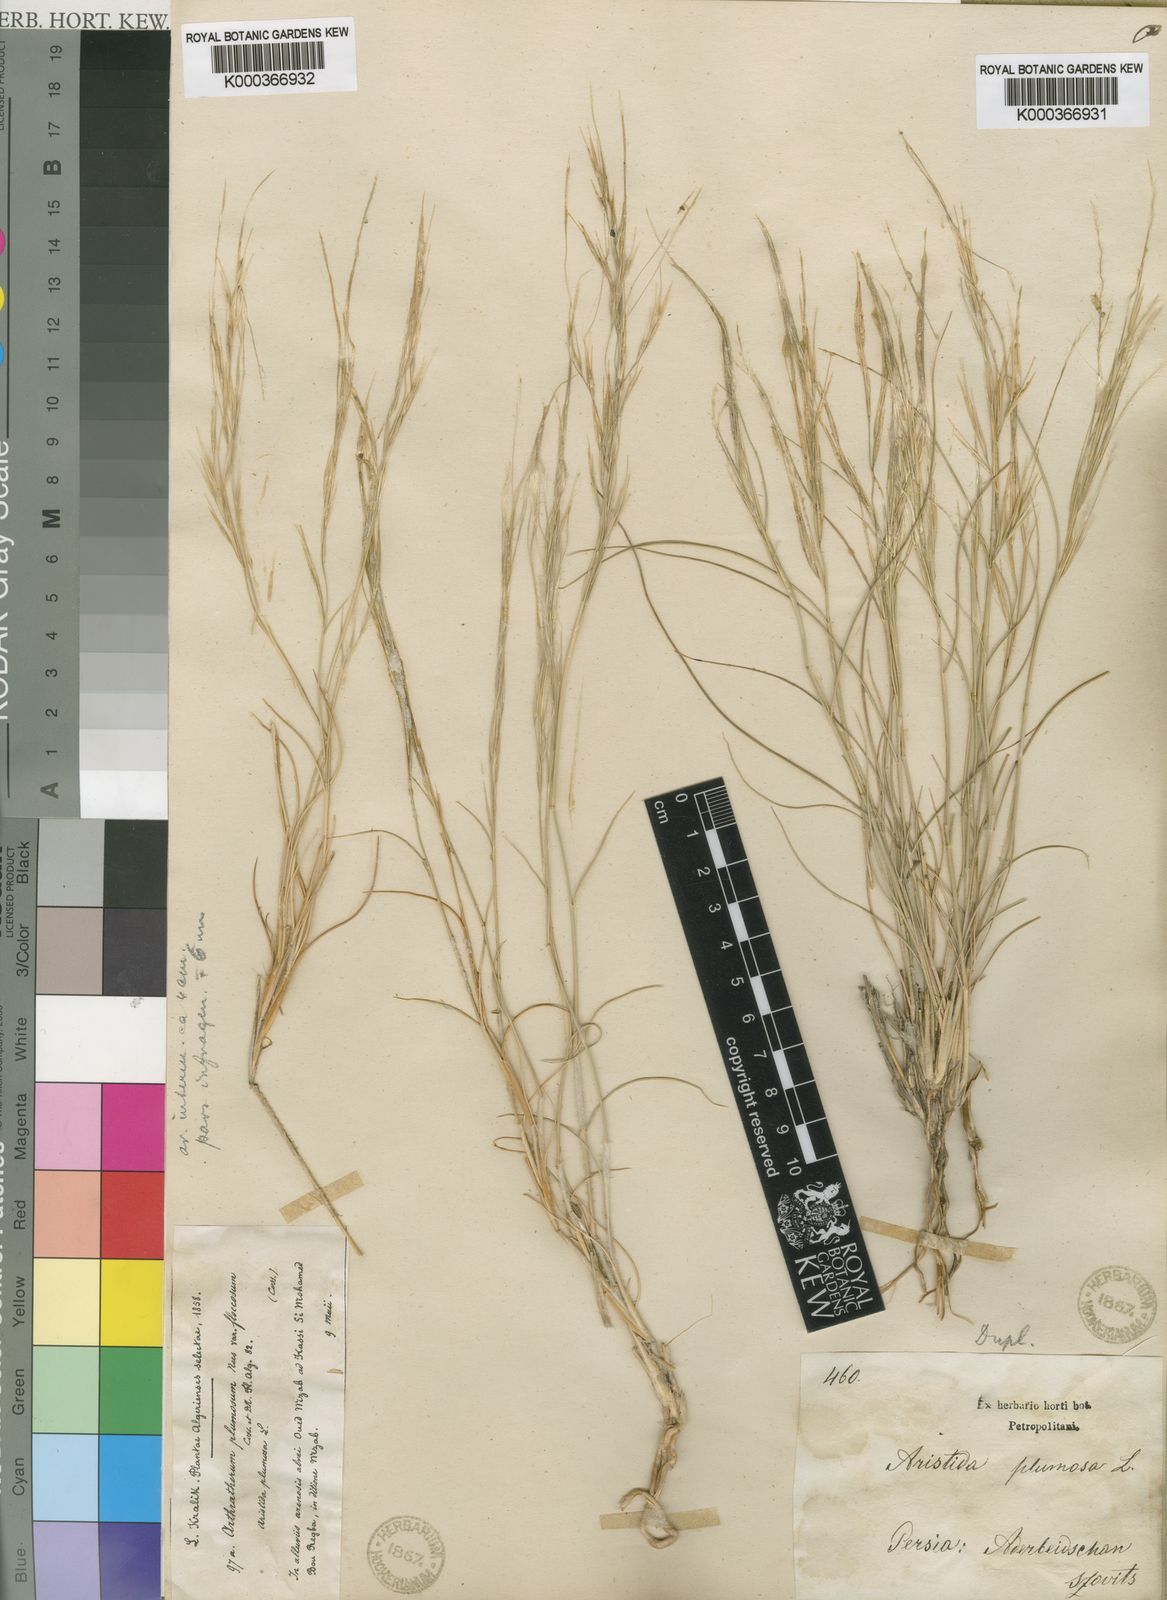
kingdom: Plantae
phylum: Tracheophyta
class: Liliopsida
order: Poales
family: Poaceae
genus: Stipagrostis
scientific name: Stipagrostis plumosa
